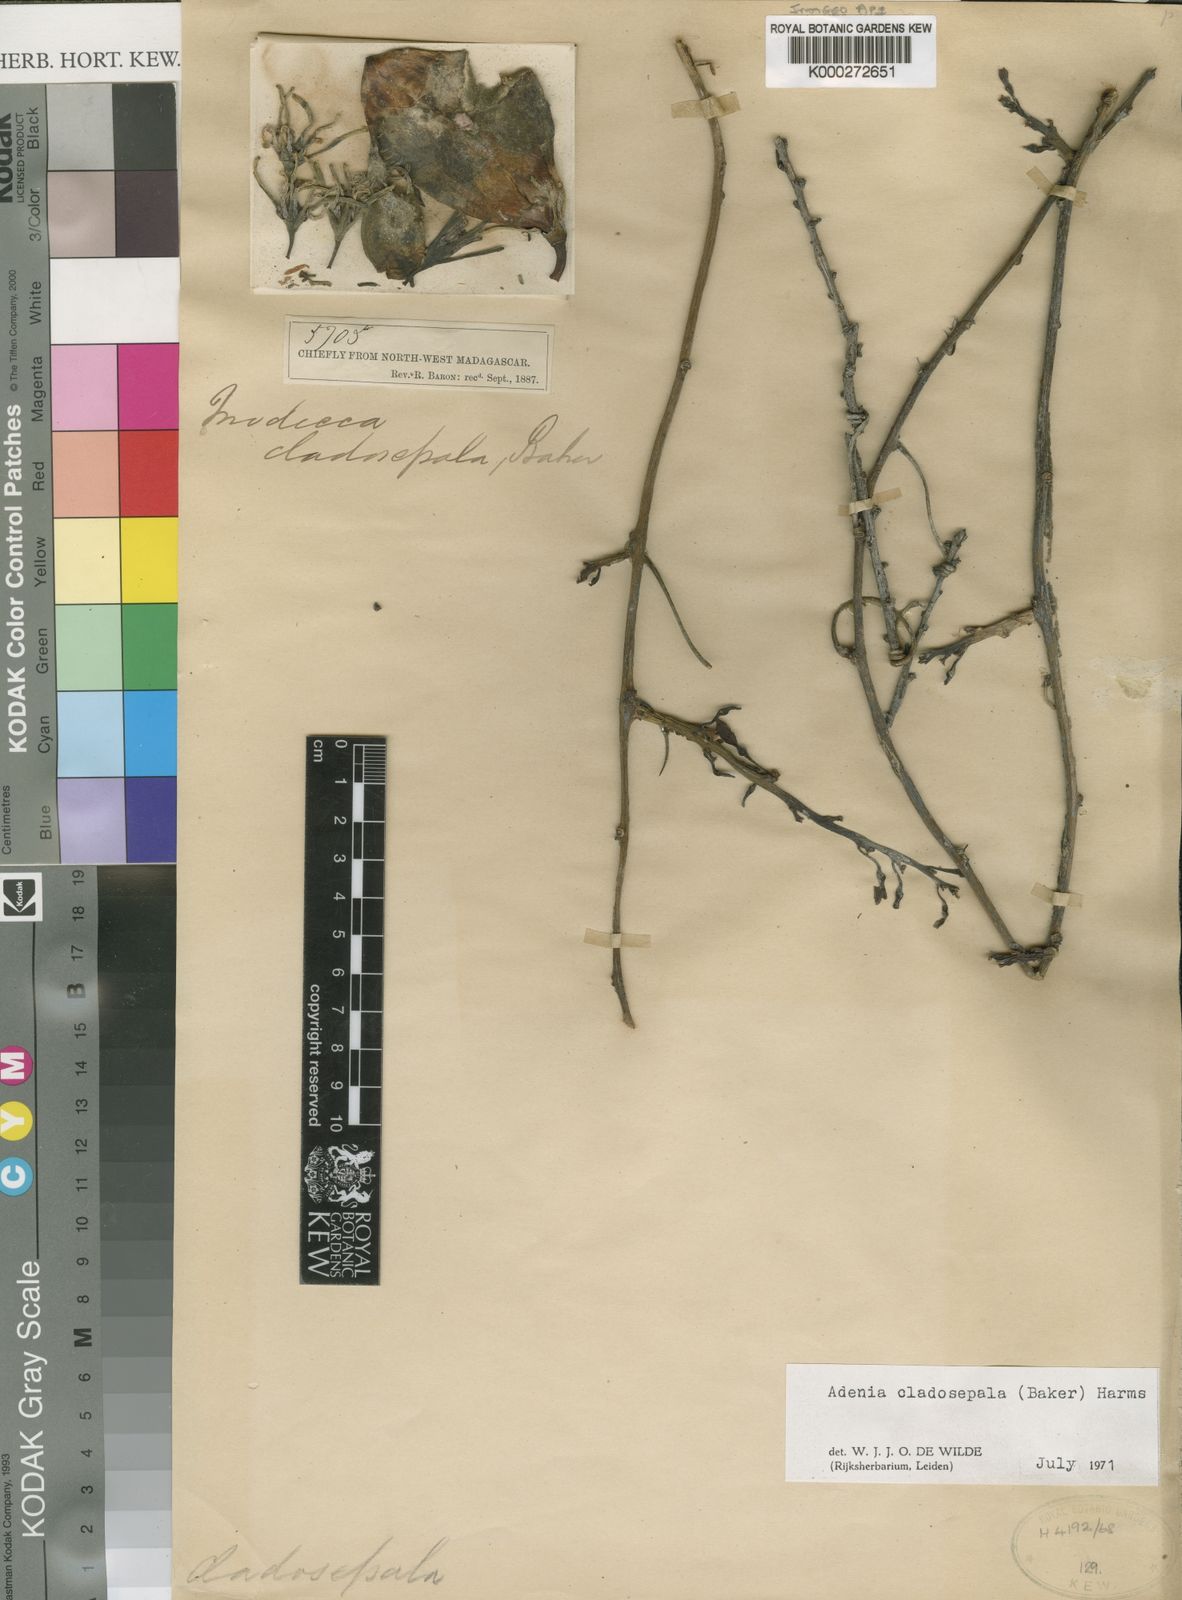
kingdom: Plantae
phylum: Tracheophyta
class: Magnoliopsida
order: Malpighiales
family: Passifloraceae
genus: Adenia
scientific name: Adenia cladosepala
